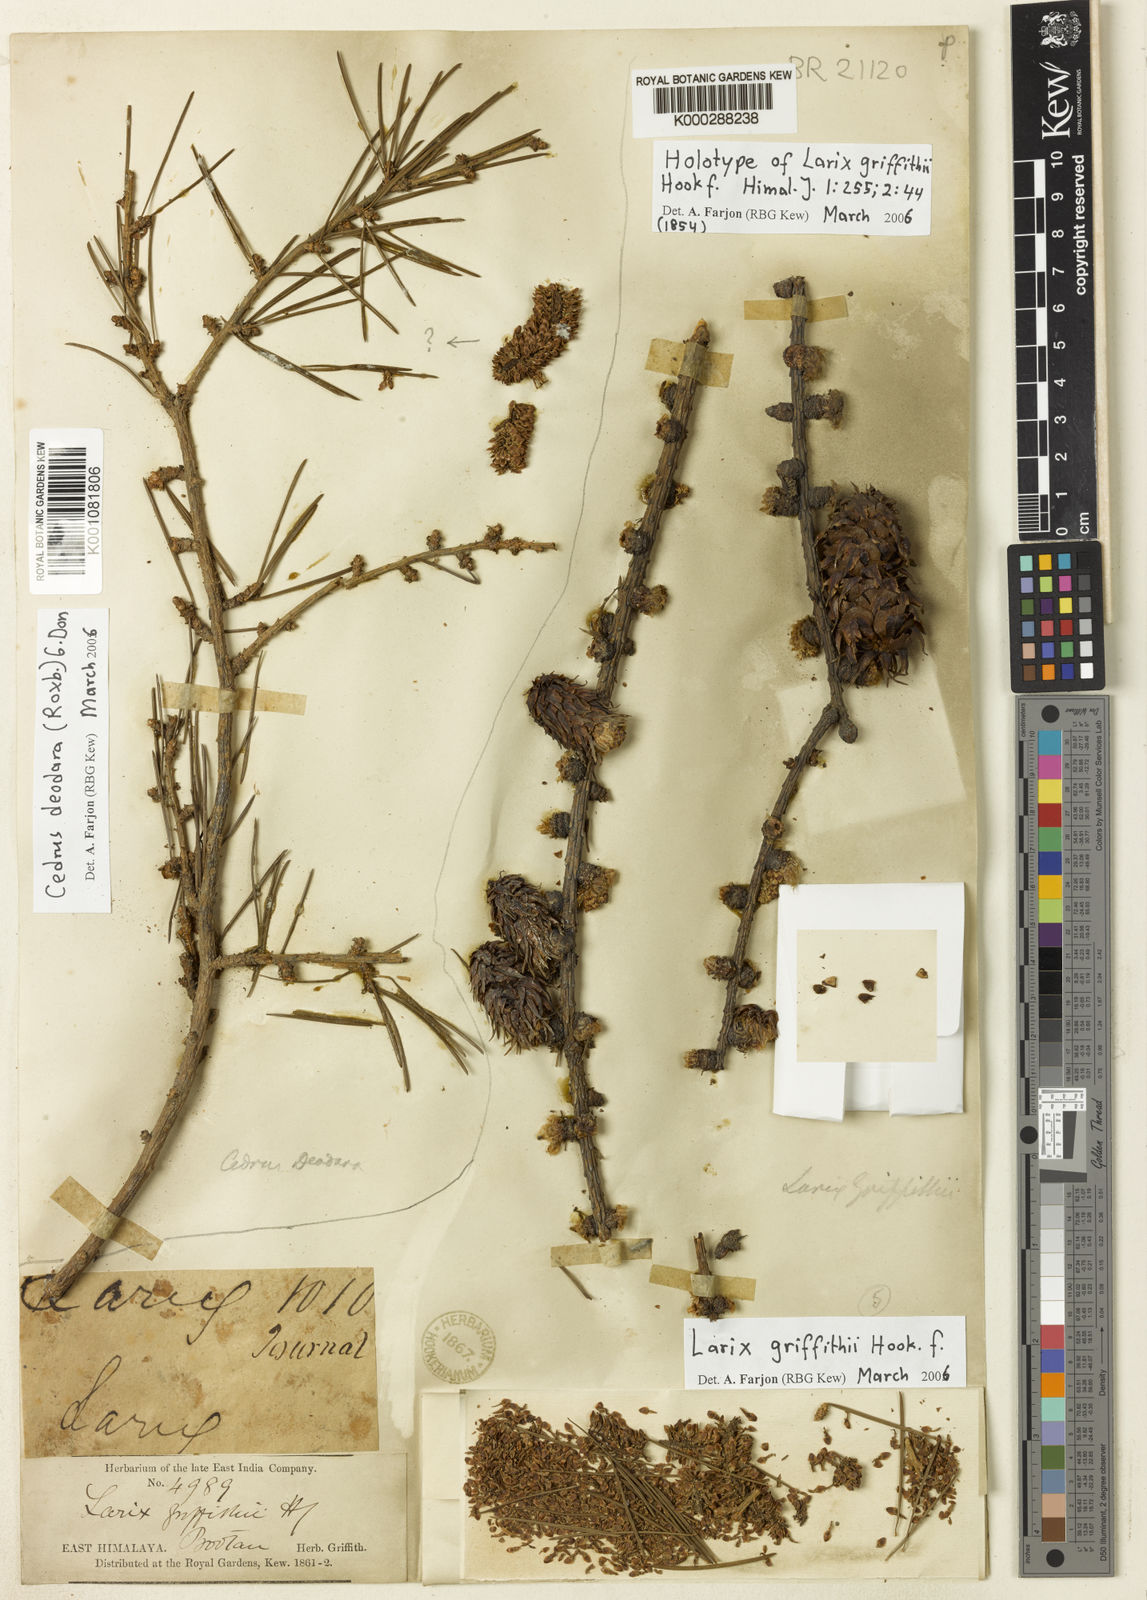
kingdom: Plantae
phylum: Tracheophyta
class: Pinopsida
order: Pinales
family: Pinaceae
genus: Larix
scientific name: Larix griffithii
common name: Sikkim larch
